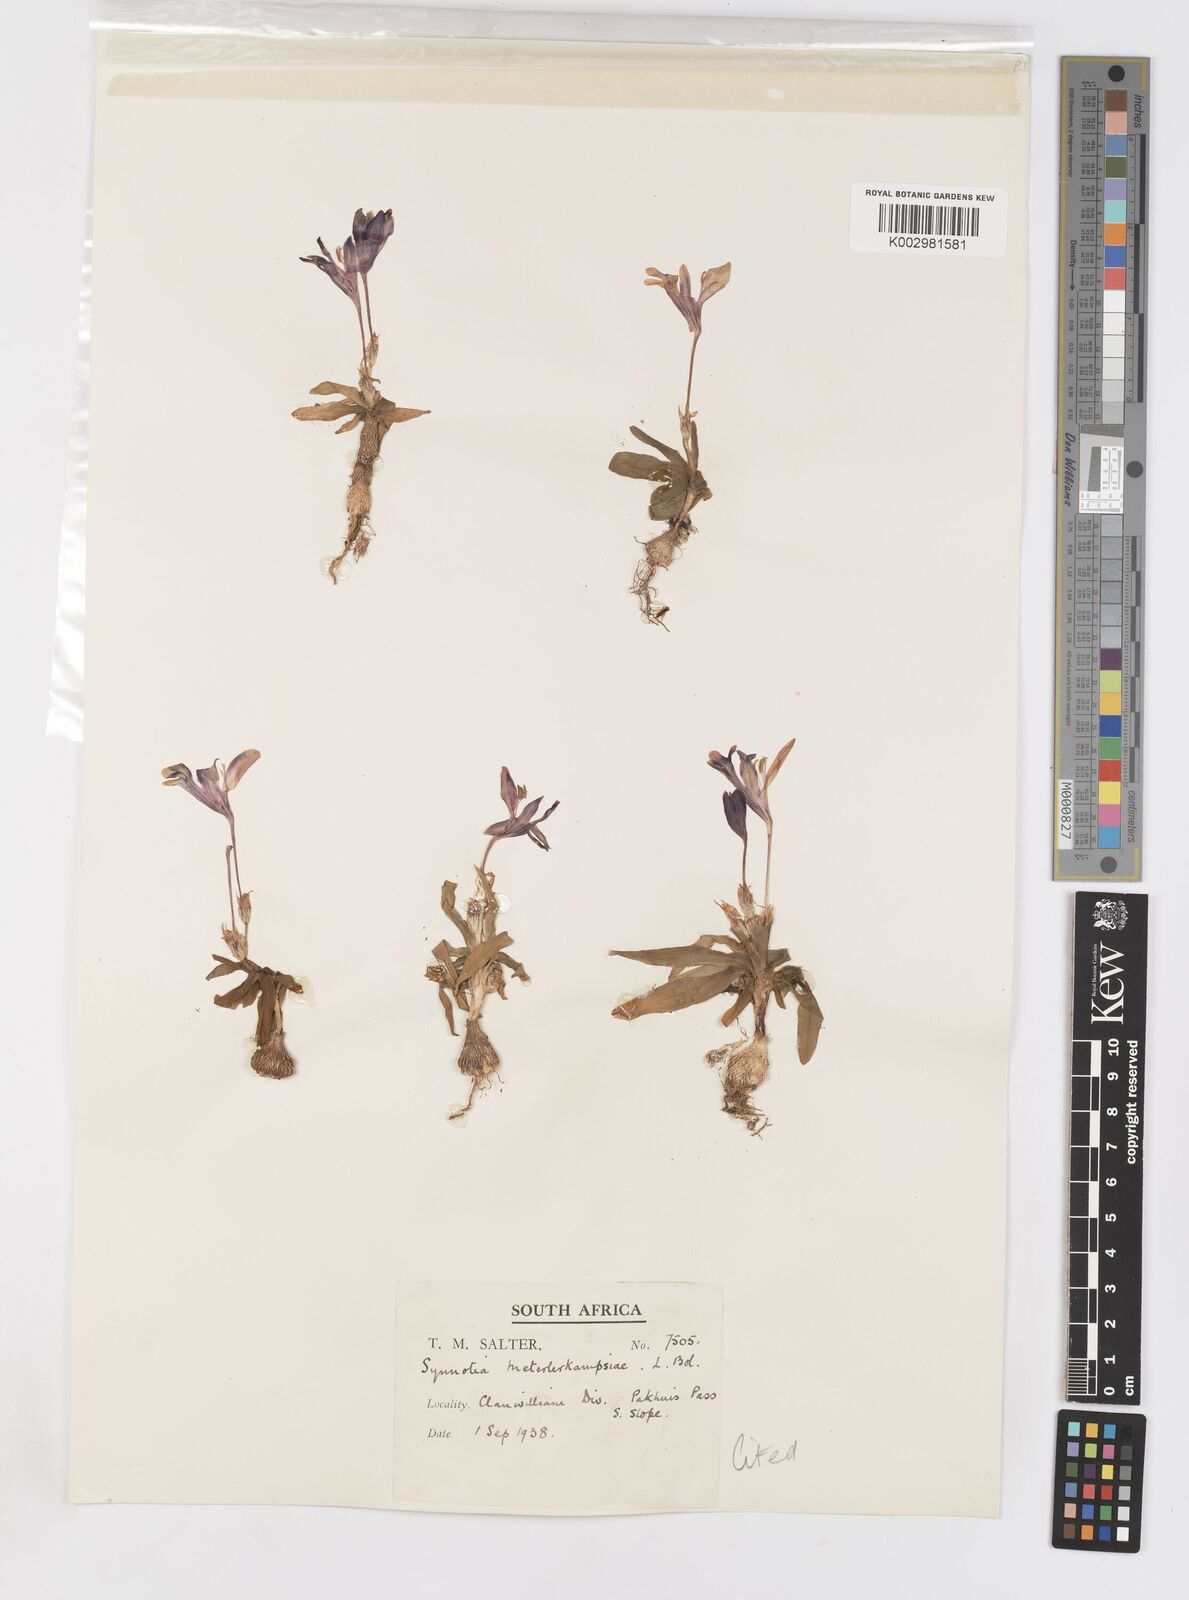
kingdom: Plantae
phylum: Tracheophyta
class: Liliopsida
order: Asparagales
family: Iridaceae
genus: Sparaxis
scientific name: Sparaxis metelerkampiae
